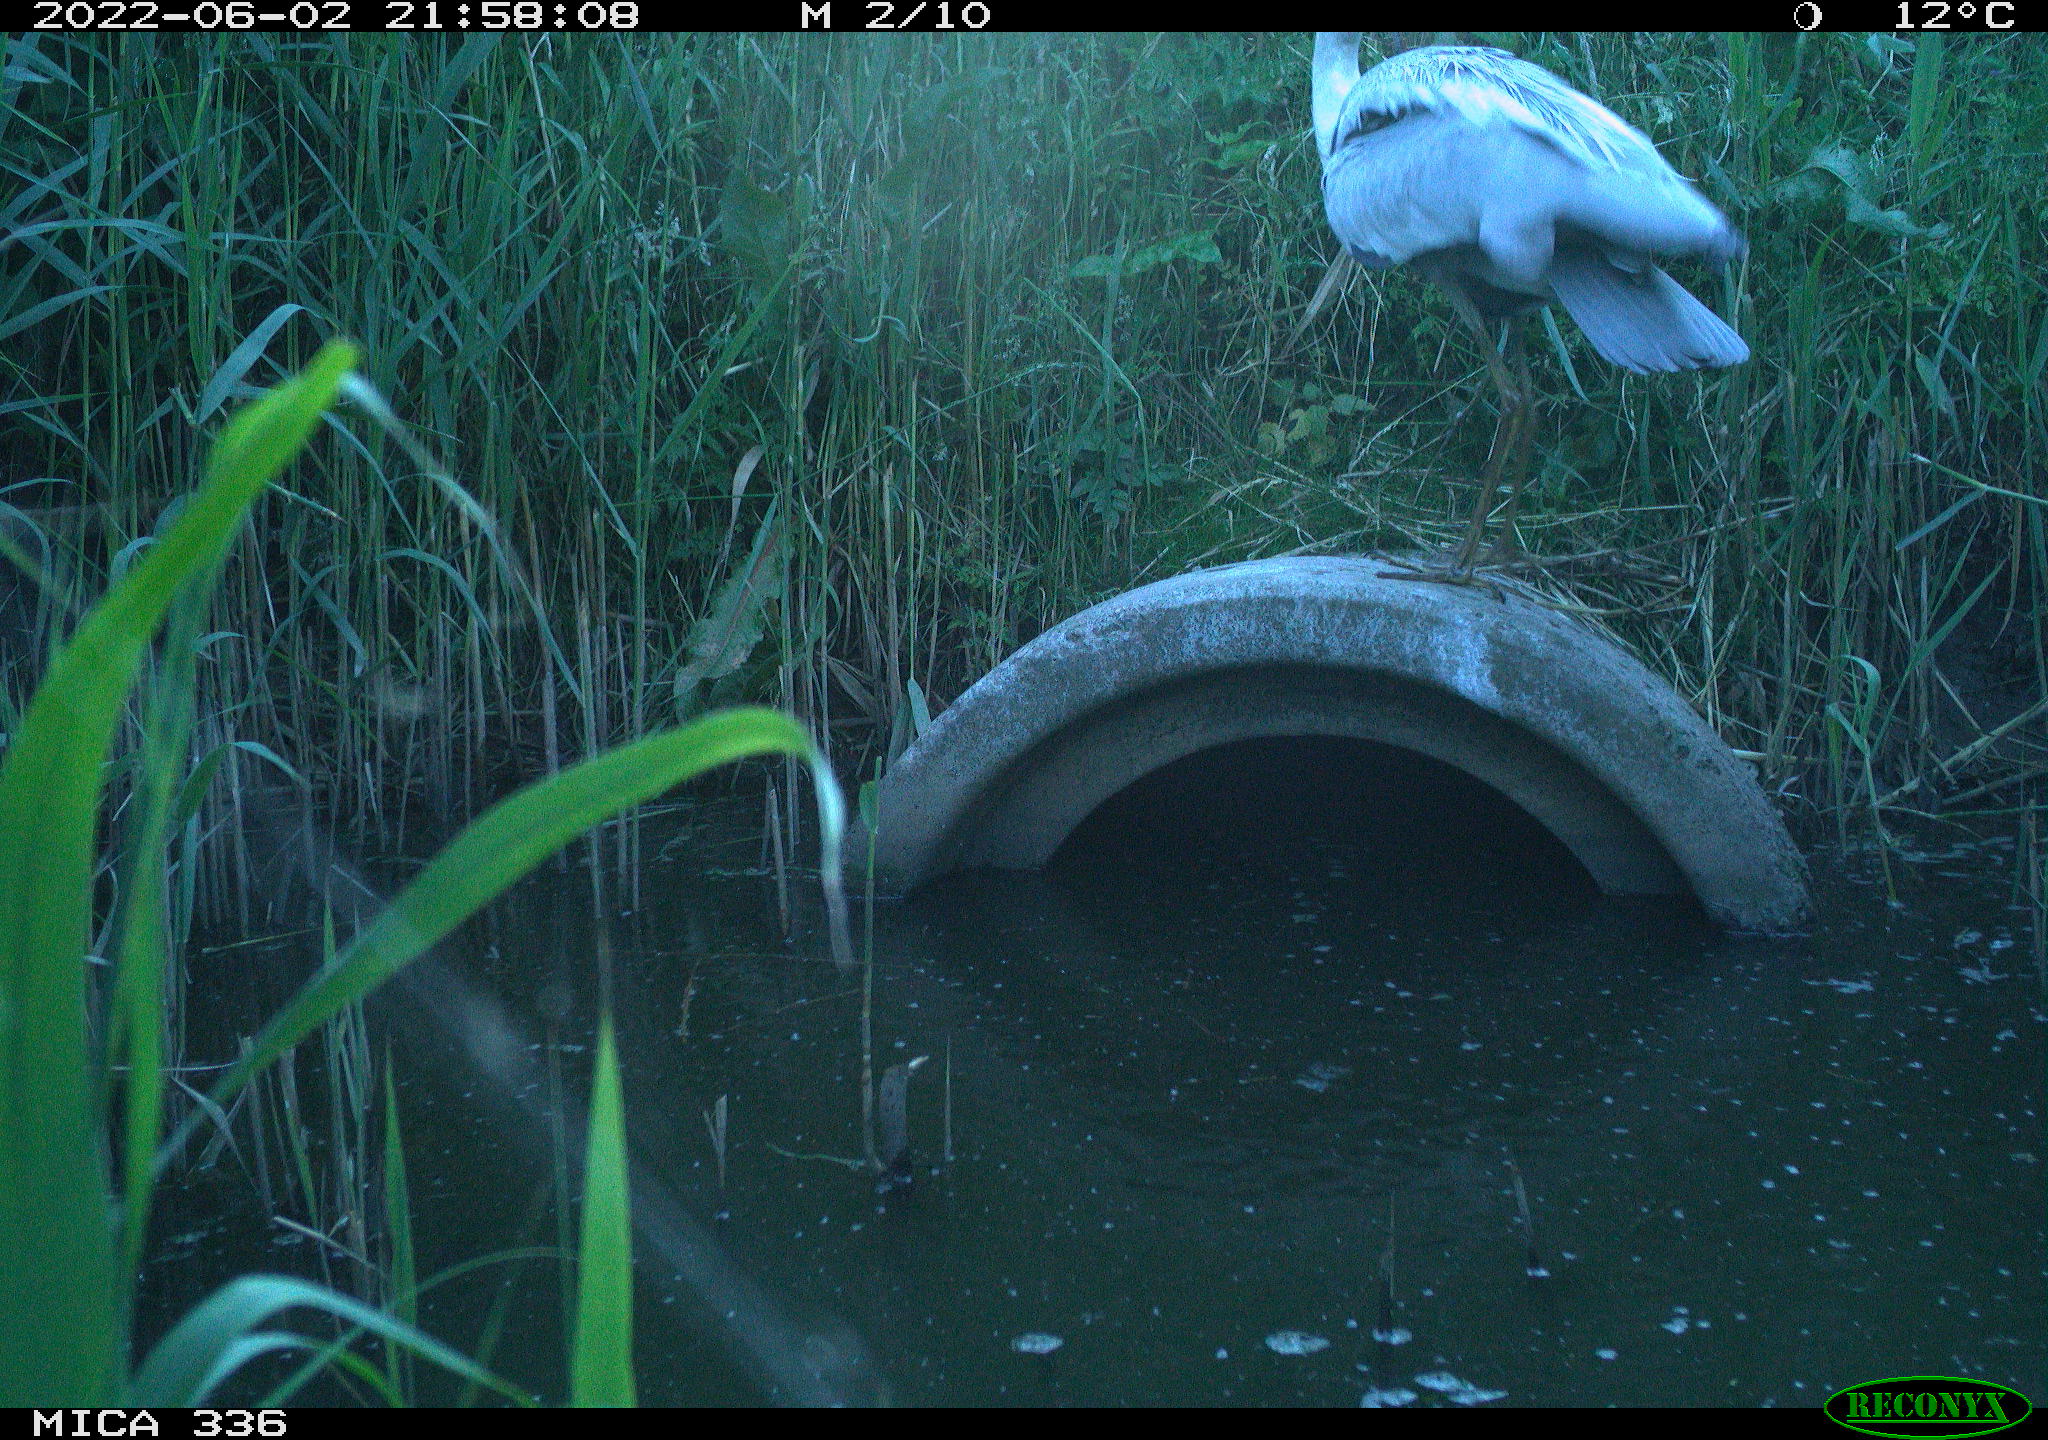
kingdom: Animalia
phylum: Chordata
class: Aves
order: Pelecaniformes
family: Ardeidae
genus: Ardea
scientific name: Ardea
